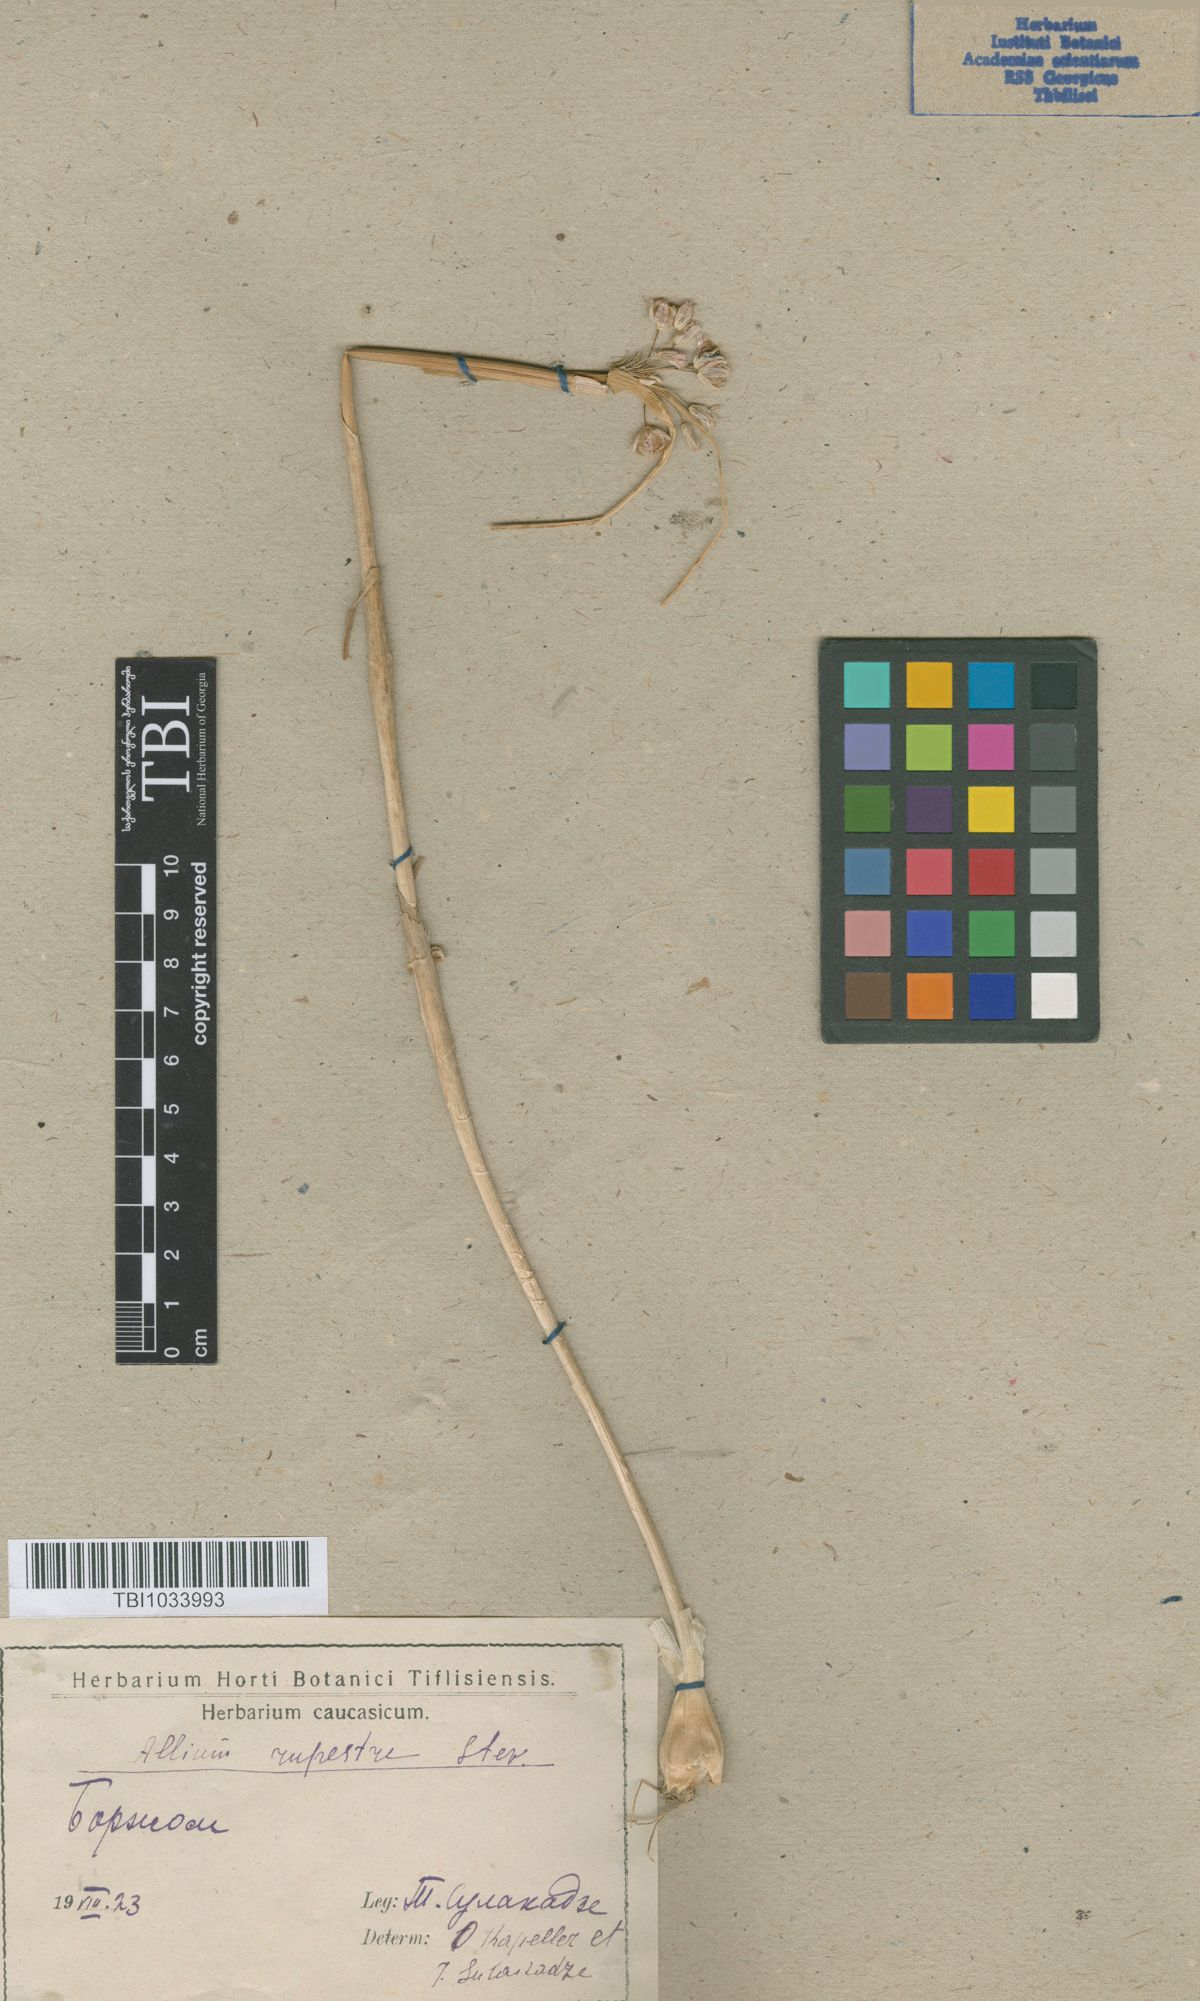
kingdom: Plantae
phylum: Tracheophyta
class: Liliopsida
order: Asparagales
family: Amaryllidaceae
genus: Allium
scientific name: Allium rupestre
